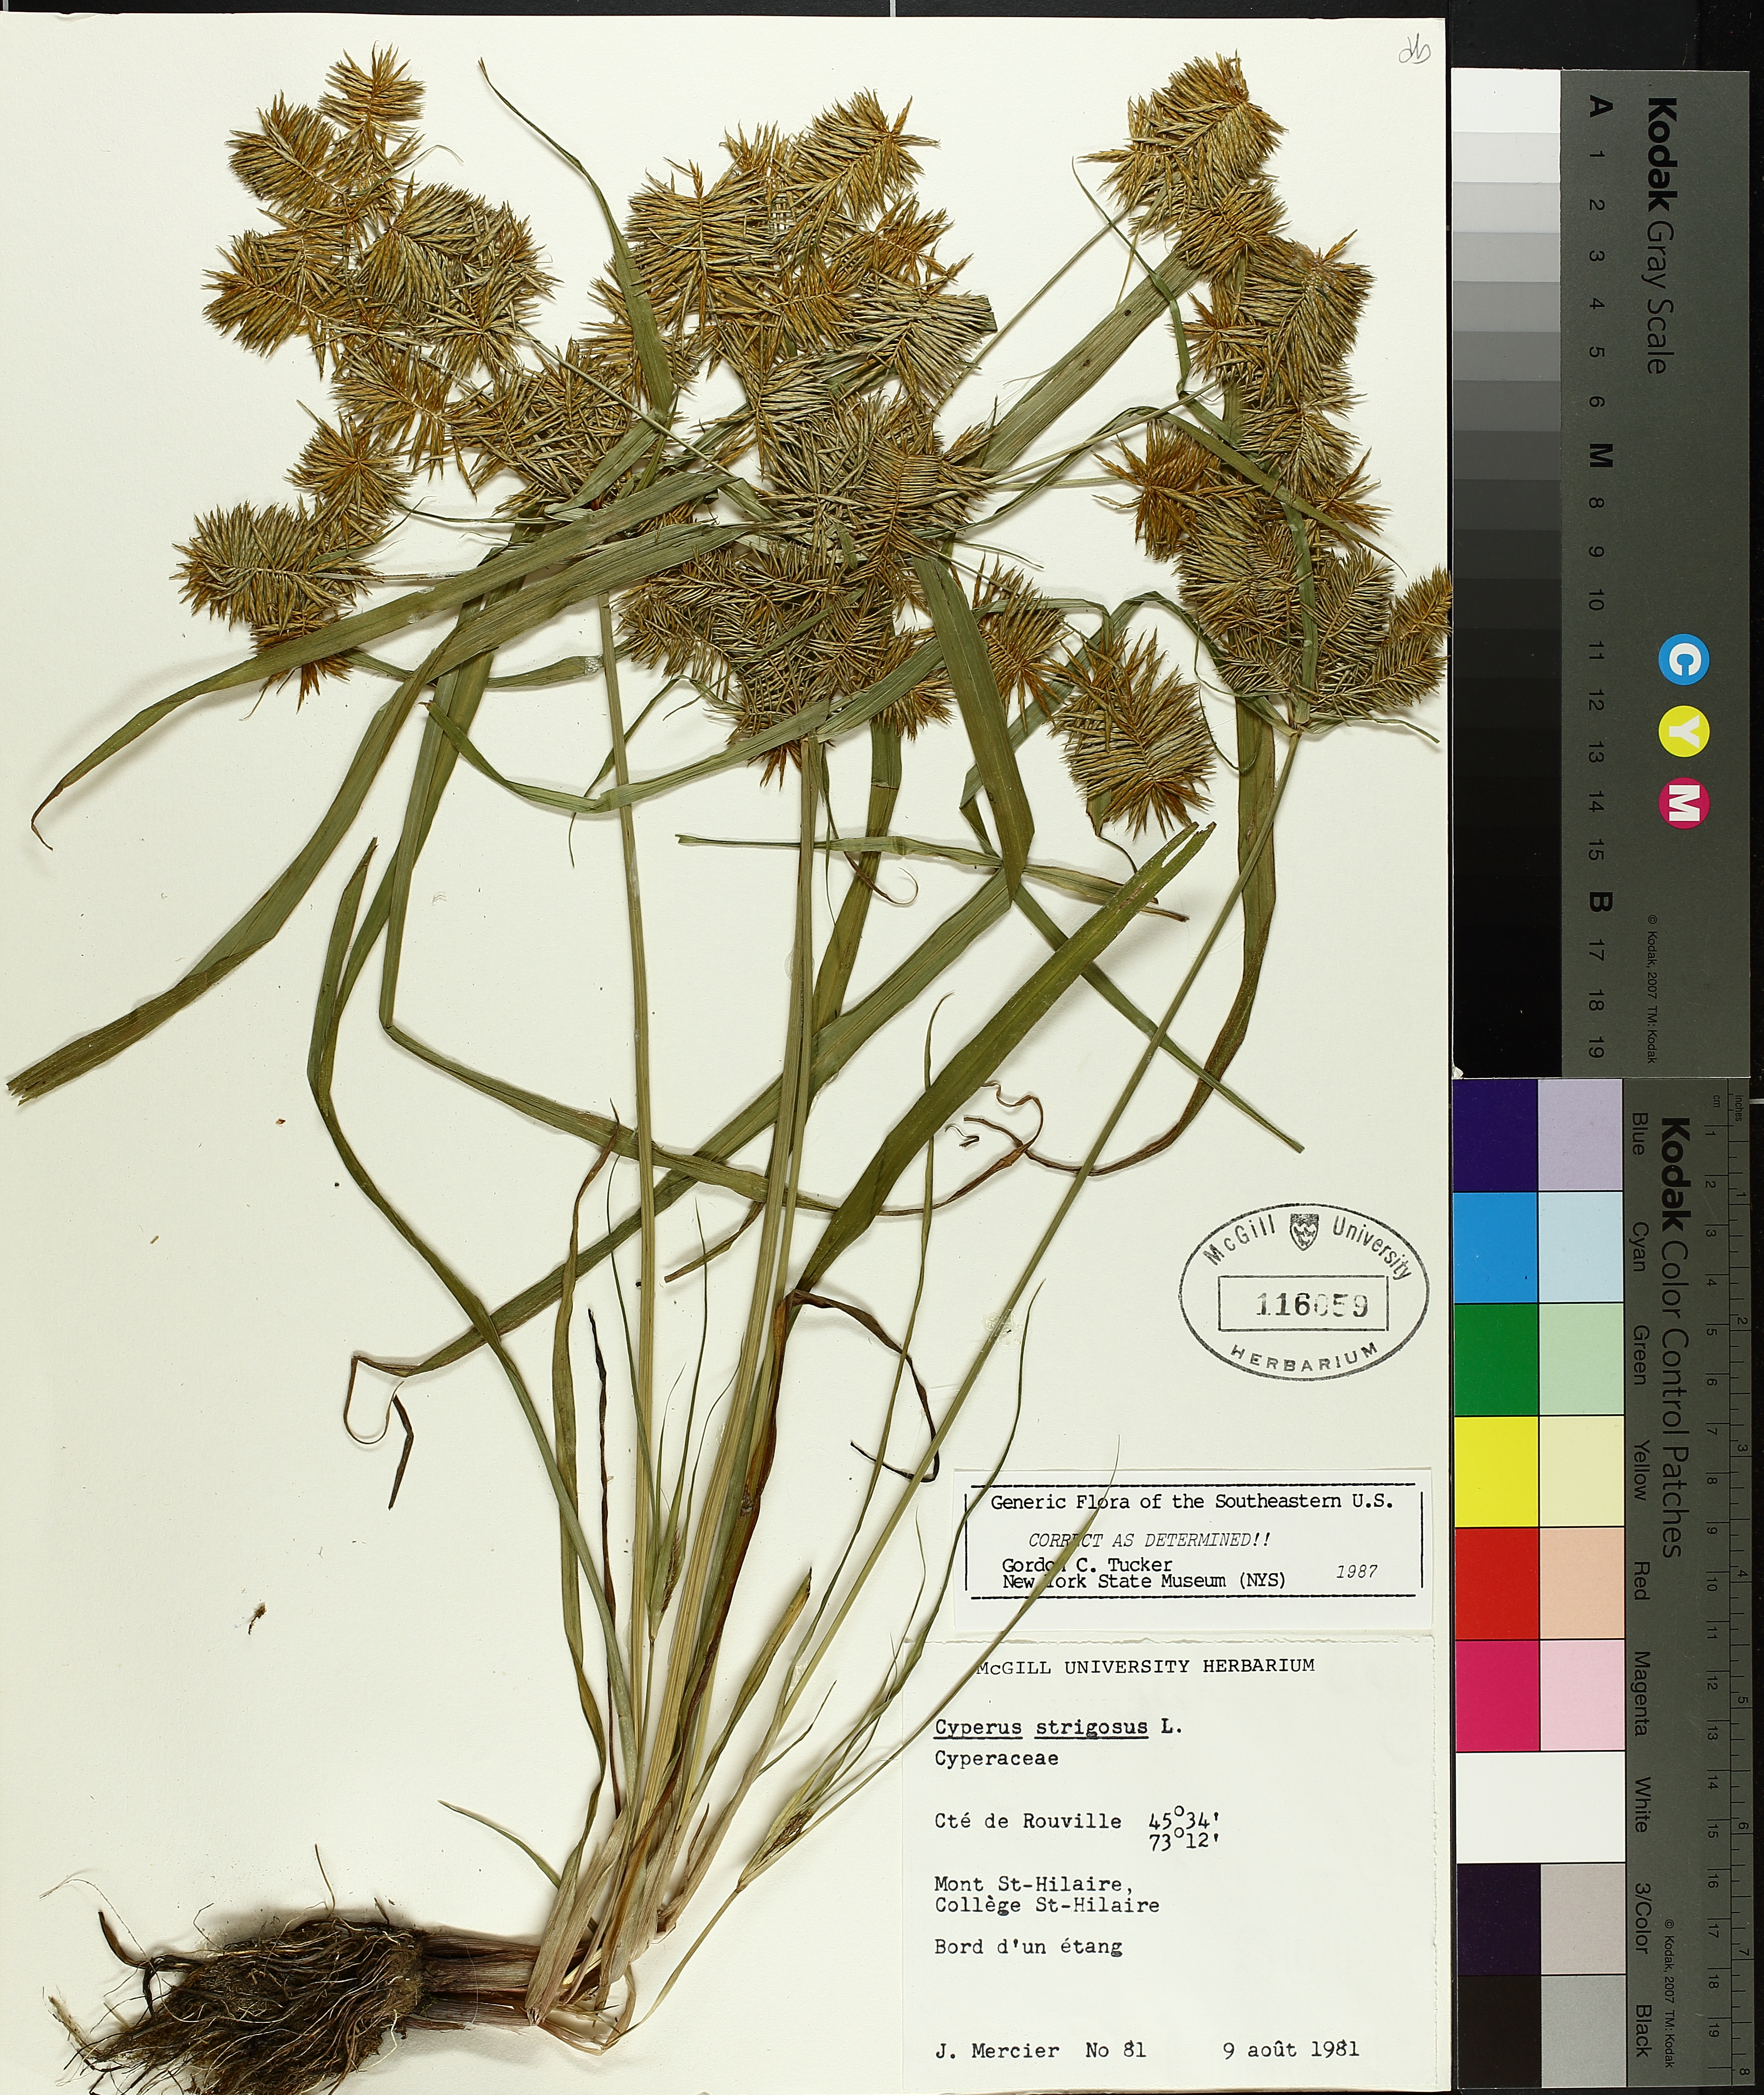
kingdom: Plantae
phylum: Tracheophyta
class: Liliopsida
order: Poales
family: Cyperaceae
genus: Cyperus
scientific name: Cyperus strigosus
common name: False nutsedge
